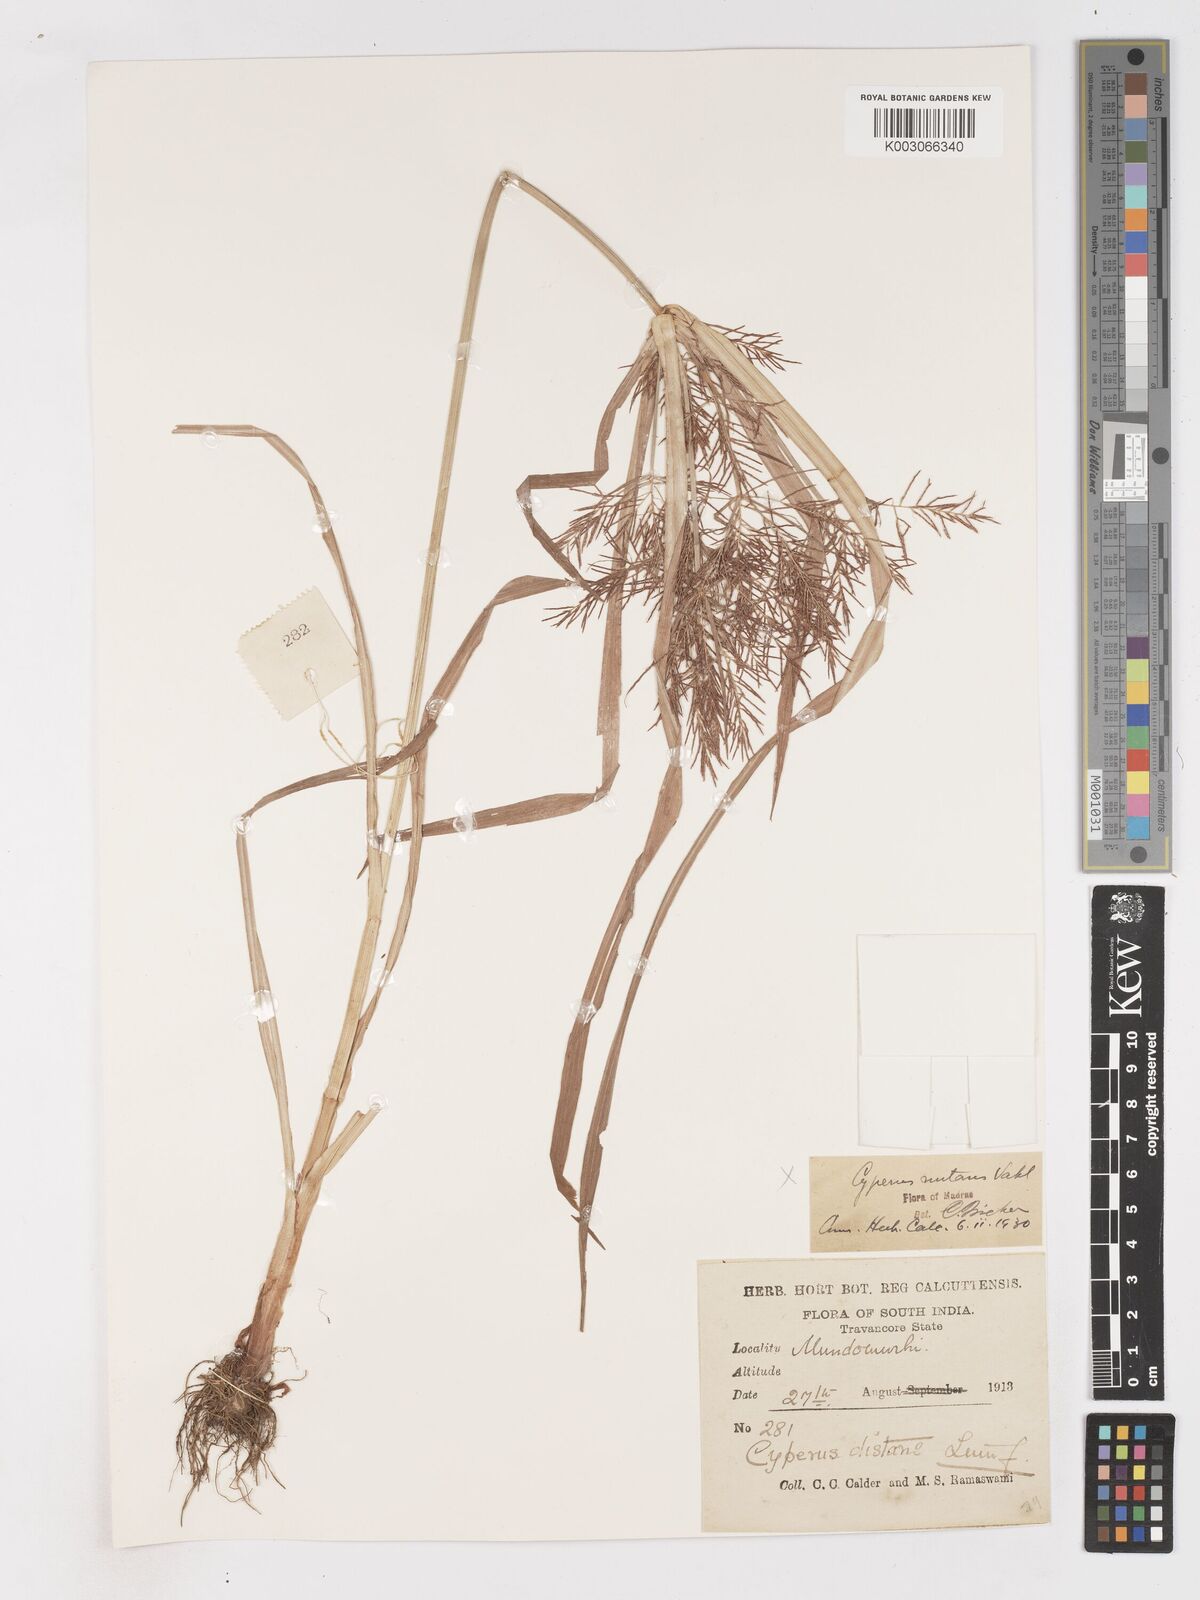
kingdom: Plantae
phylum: Tracheophyta
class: Liliopsida
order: Poales
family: Cyperaceae
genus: Cyperus
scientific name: Cyperus distans
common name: Slender cyperus
